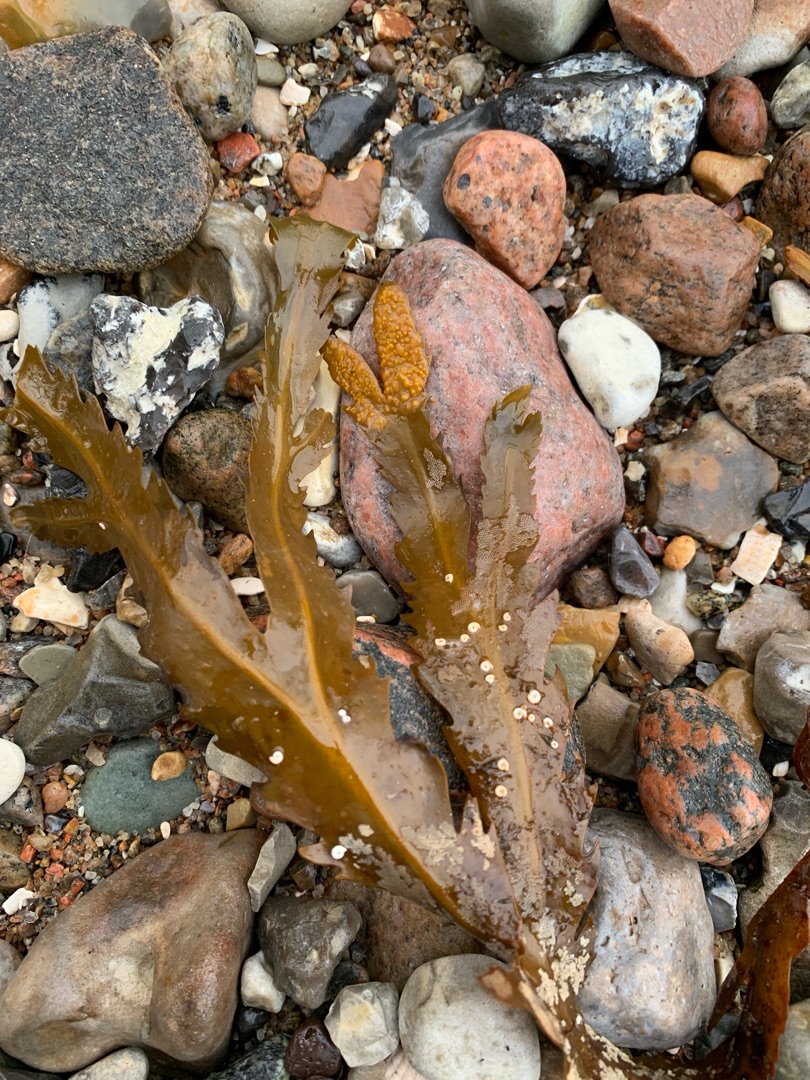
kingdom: Chromista
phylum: Ochrophyta
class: Phaeophyceae
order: Fucales
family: Fucaceae
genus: Fucus
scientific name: Fucus serratus
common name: Savtang
